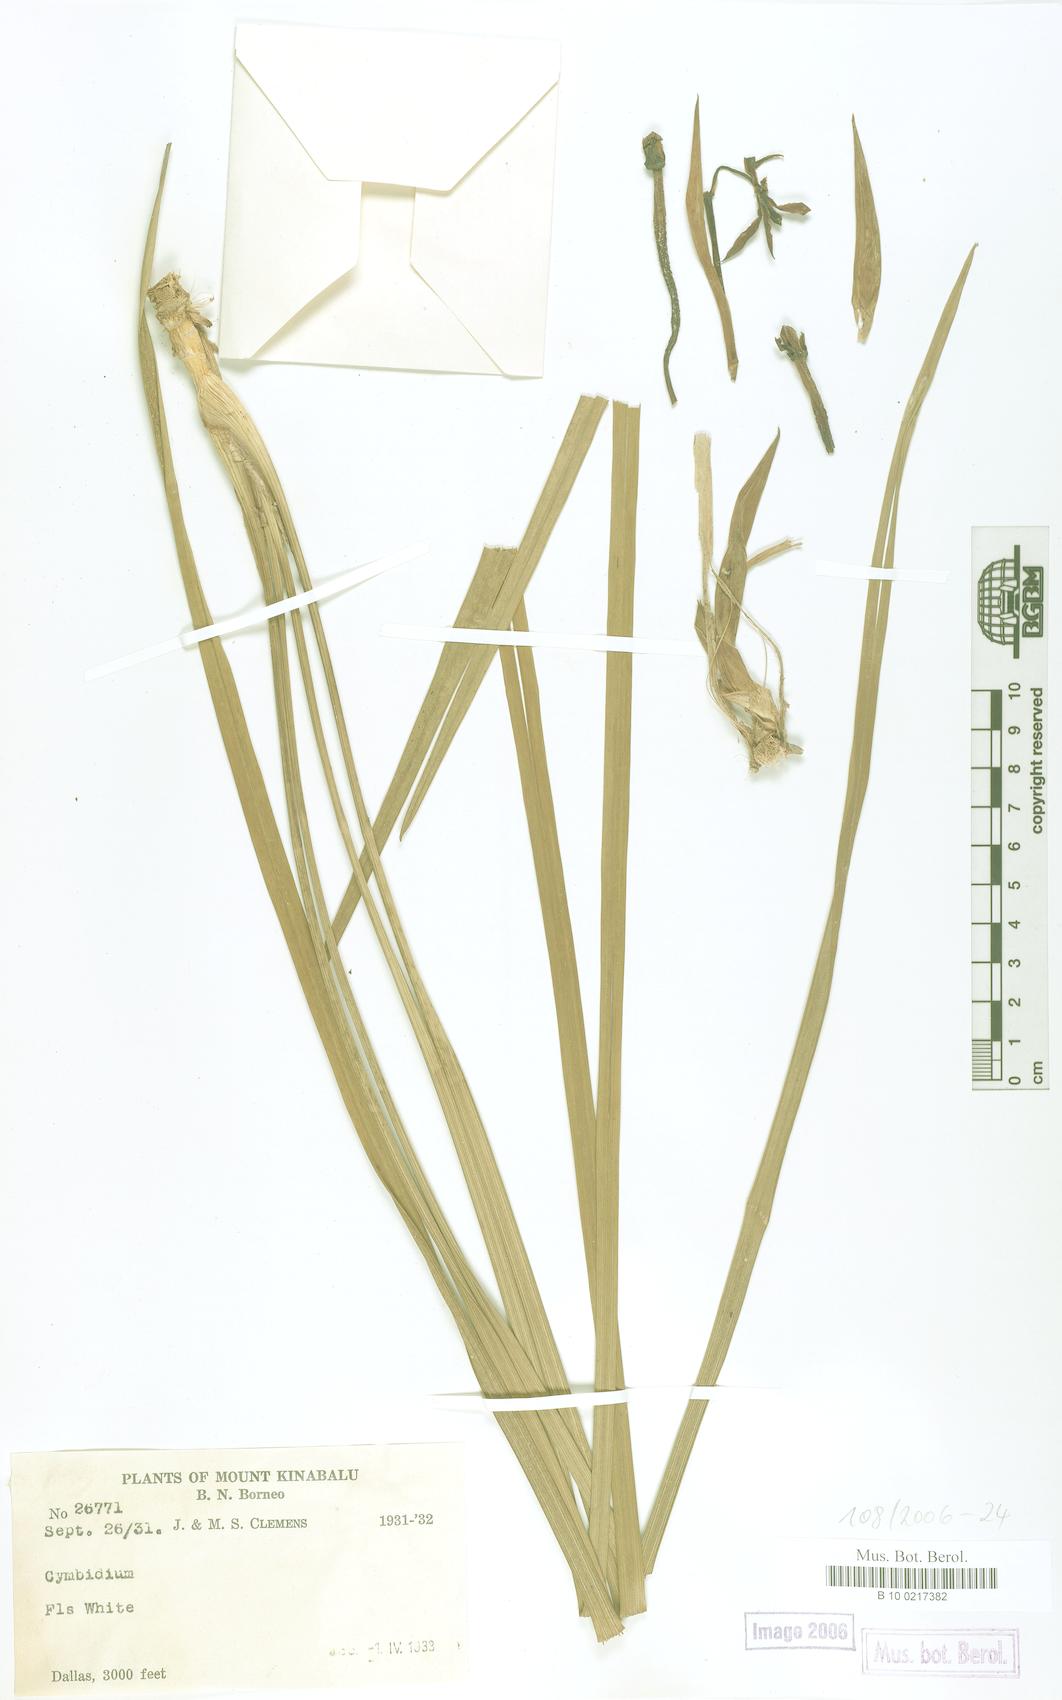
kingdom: Plantae
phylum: Tracheophyta
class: Liliopsida
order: Asparagales
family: Orchidaceae
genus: Cymbidium
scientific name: Cymbidium
